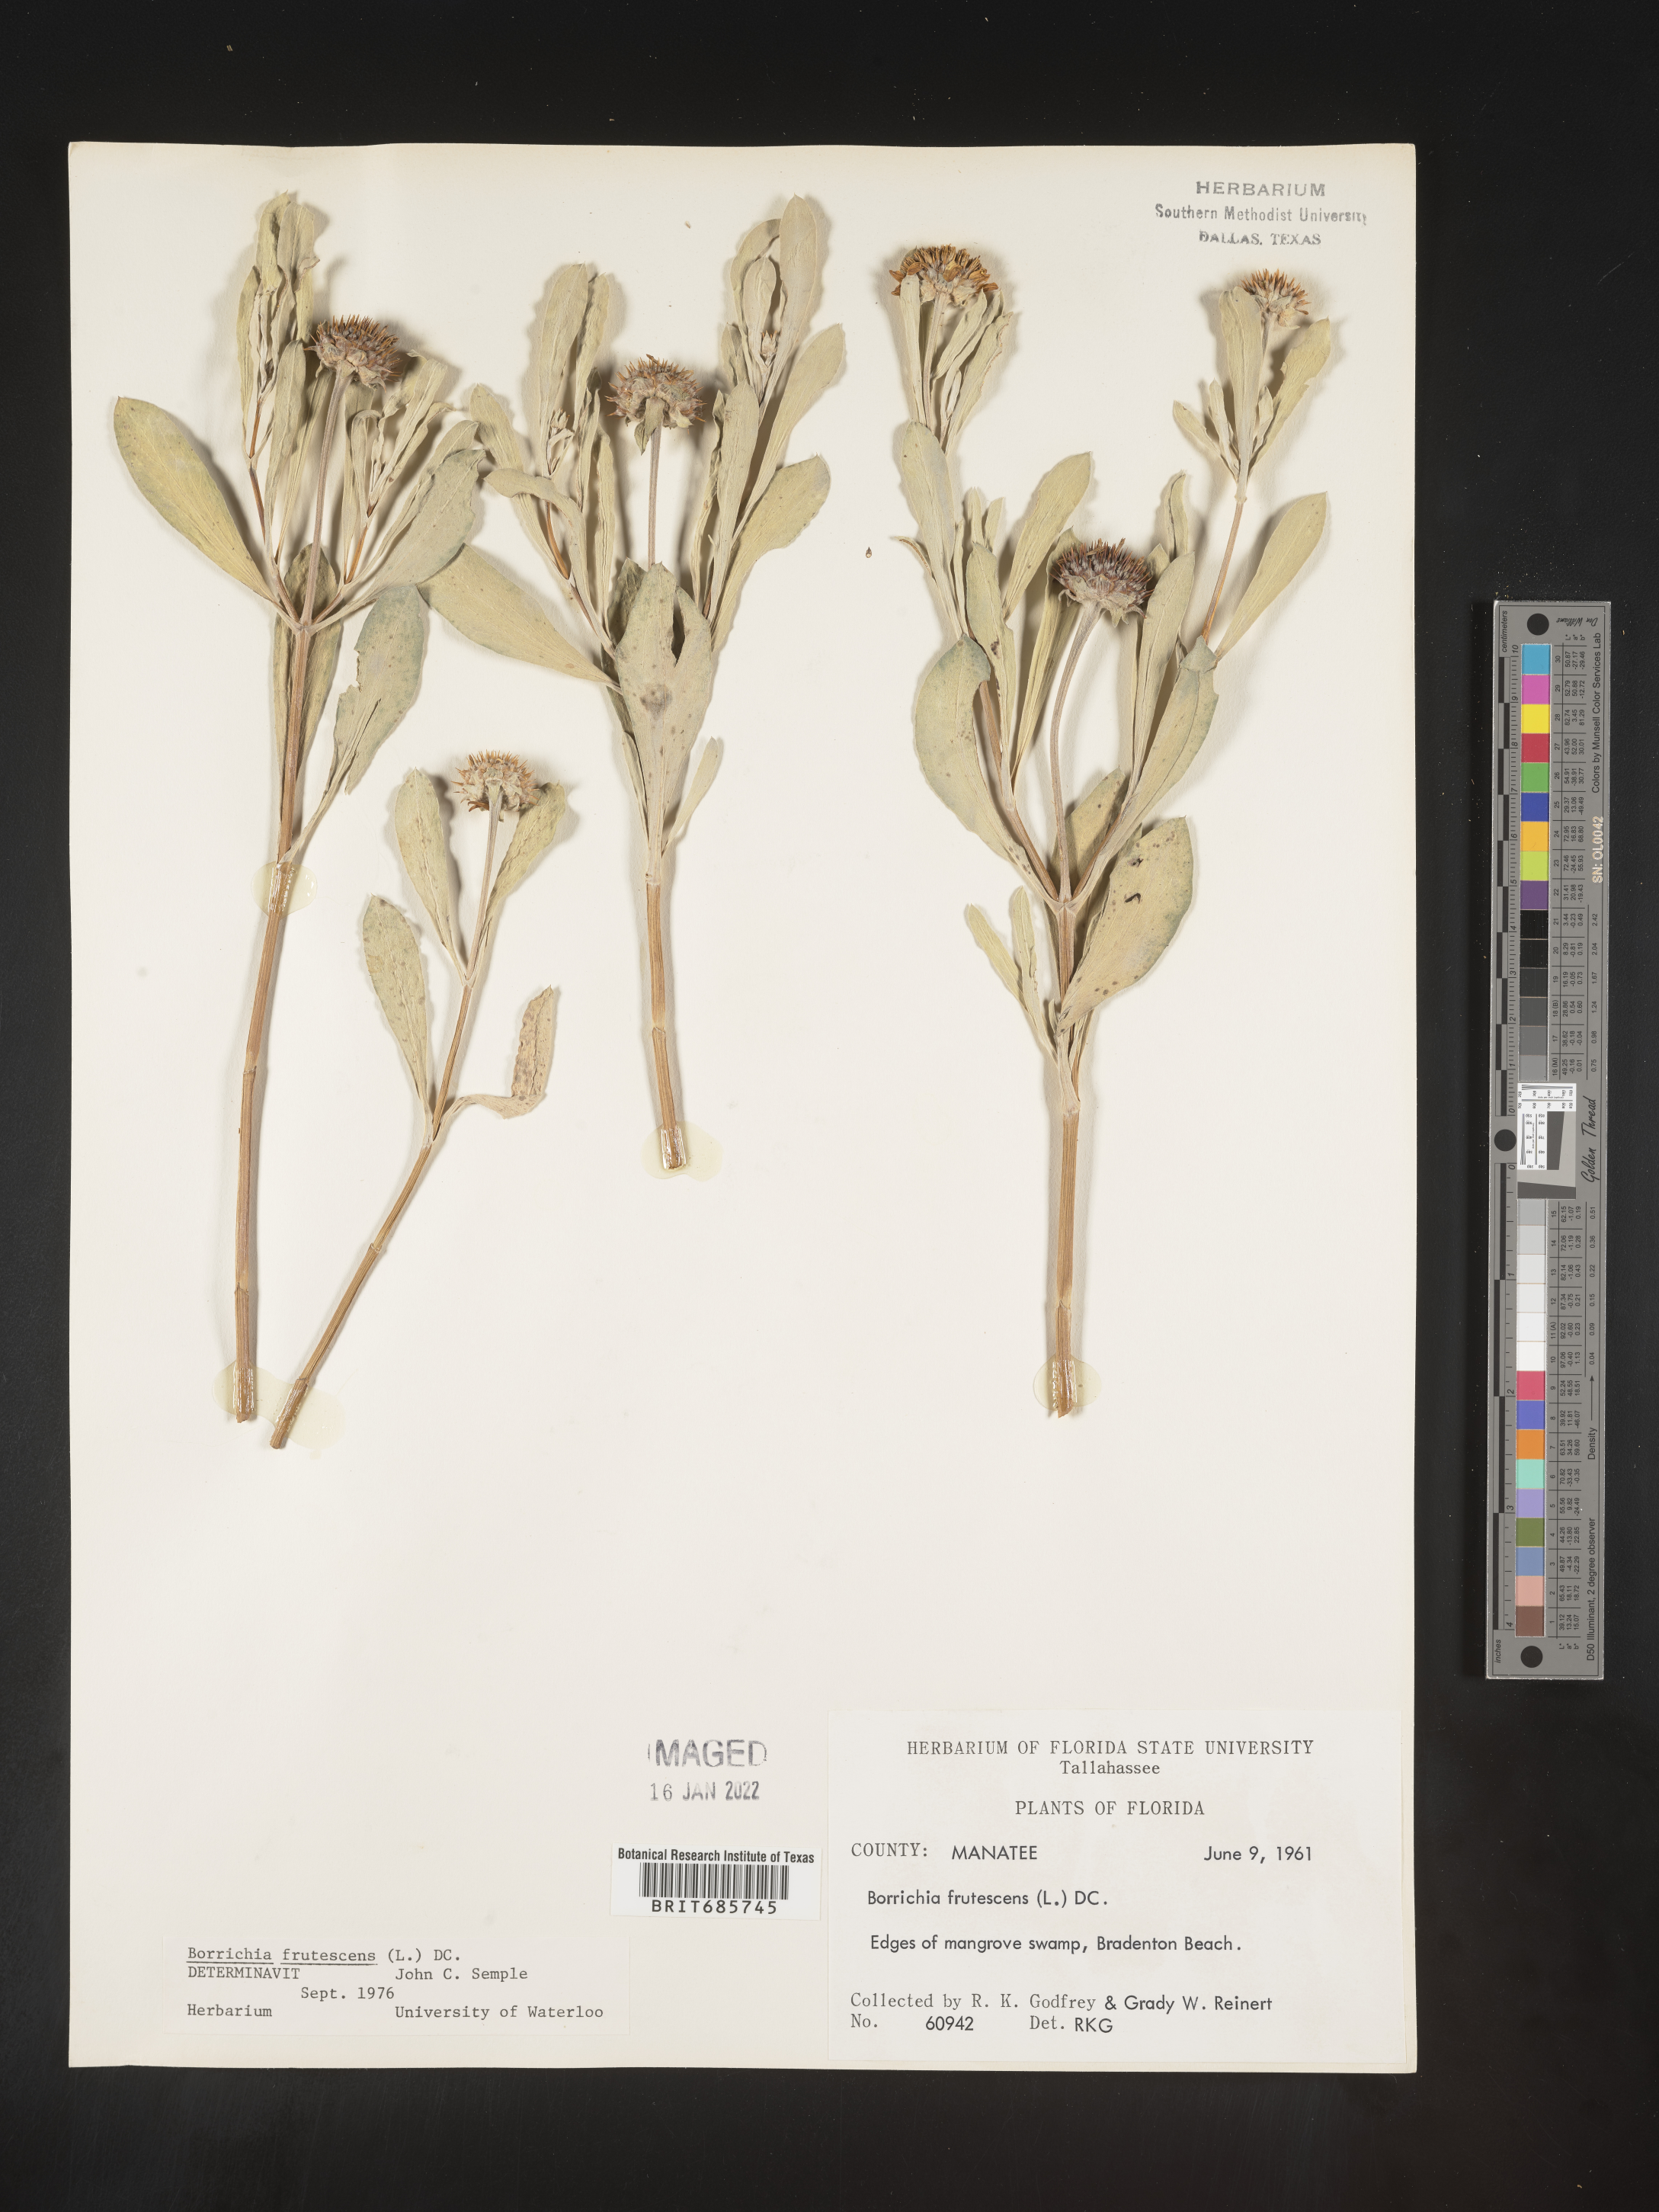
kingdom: Plantae
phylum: Tracheophyta
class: Magnoliopsida
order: Asterales
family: Asteraceae
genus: Borrichia
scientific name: Borrichia frutescens
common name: Sea oxeye
